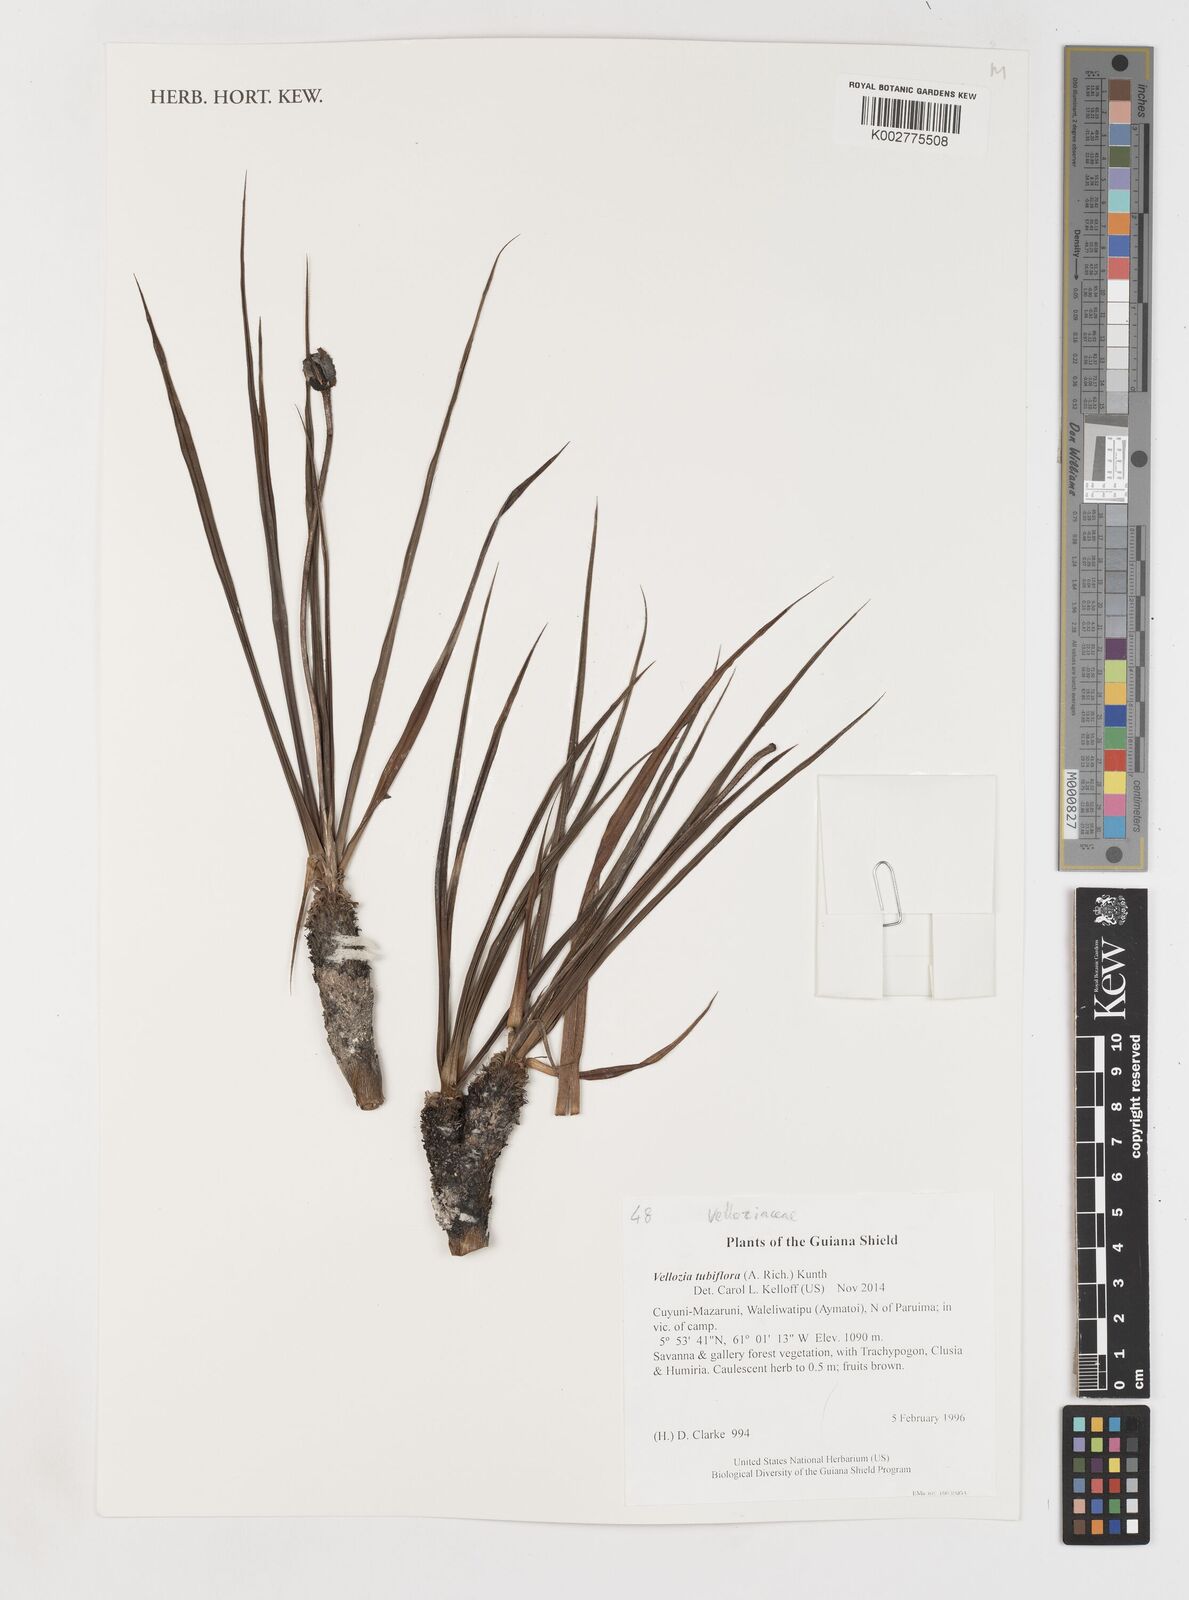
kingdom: Plantae
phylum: Tracheophyta
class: Liliopsida
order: Pandanales
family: Velloziaceae
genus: Vellozia
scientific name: Vellozia tubiflora
